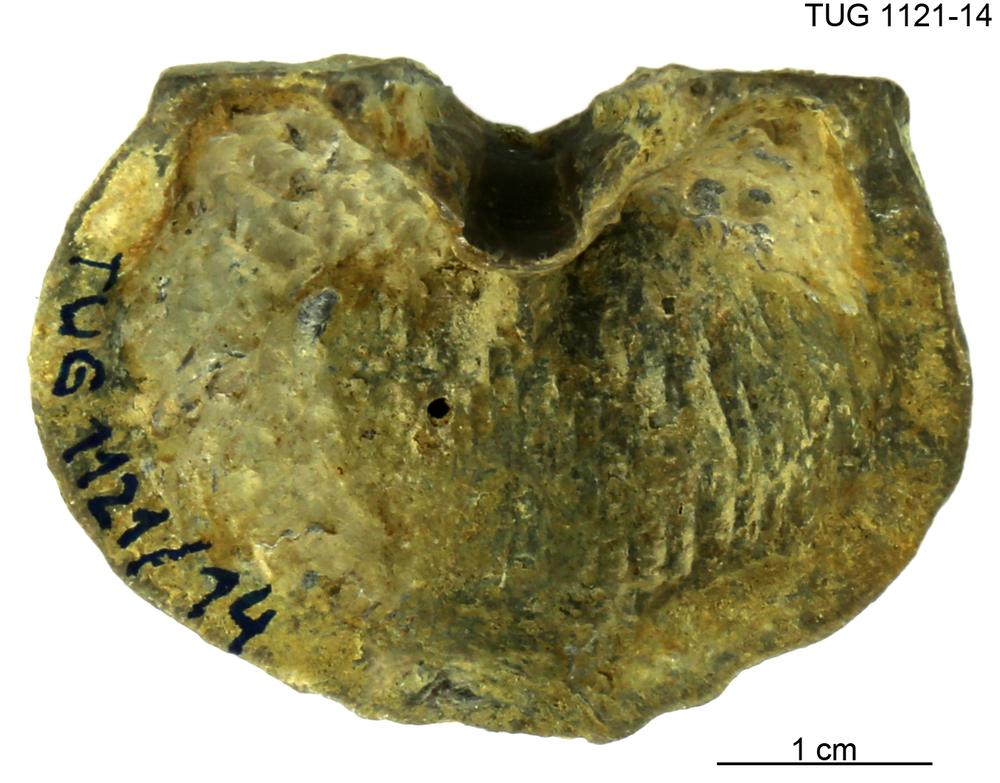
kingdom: Animalia
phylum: Brachiopoda
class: Rhynchonellata
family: Clitambonitidae
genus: Ilmarinia
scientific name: Ilmarinia dimorpha
